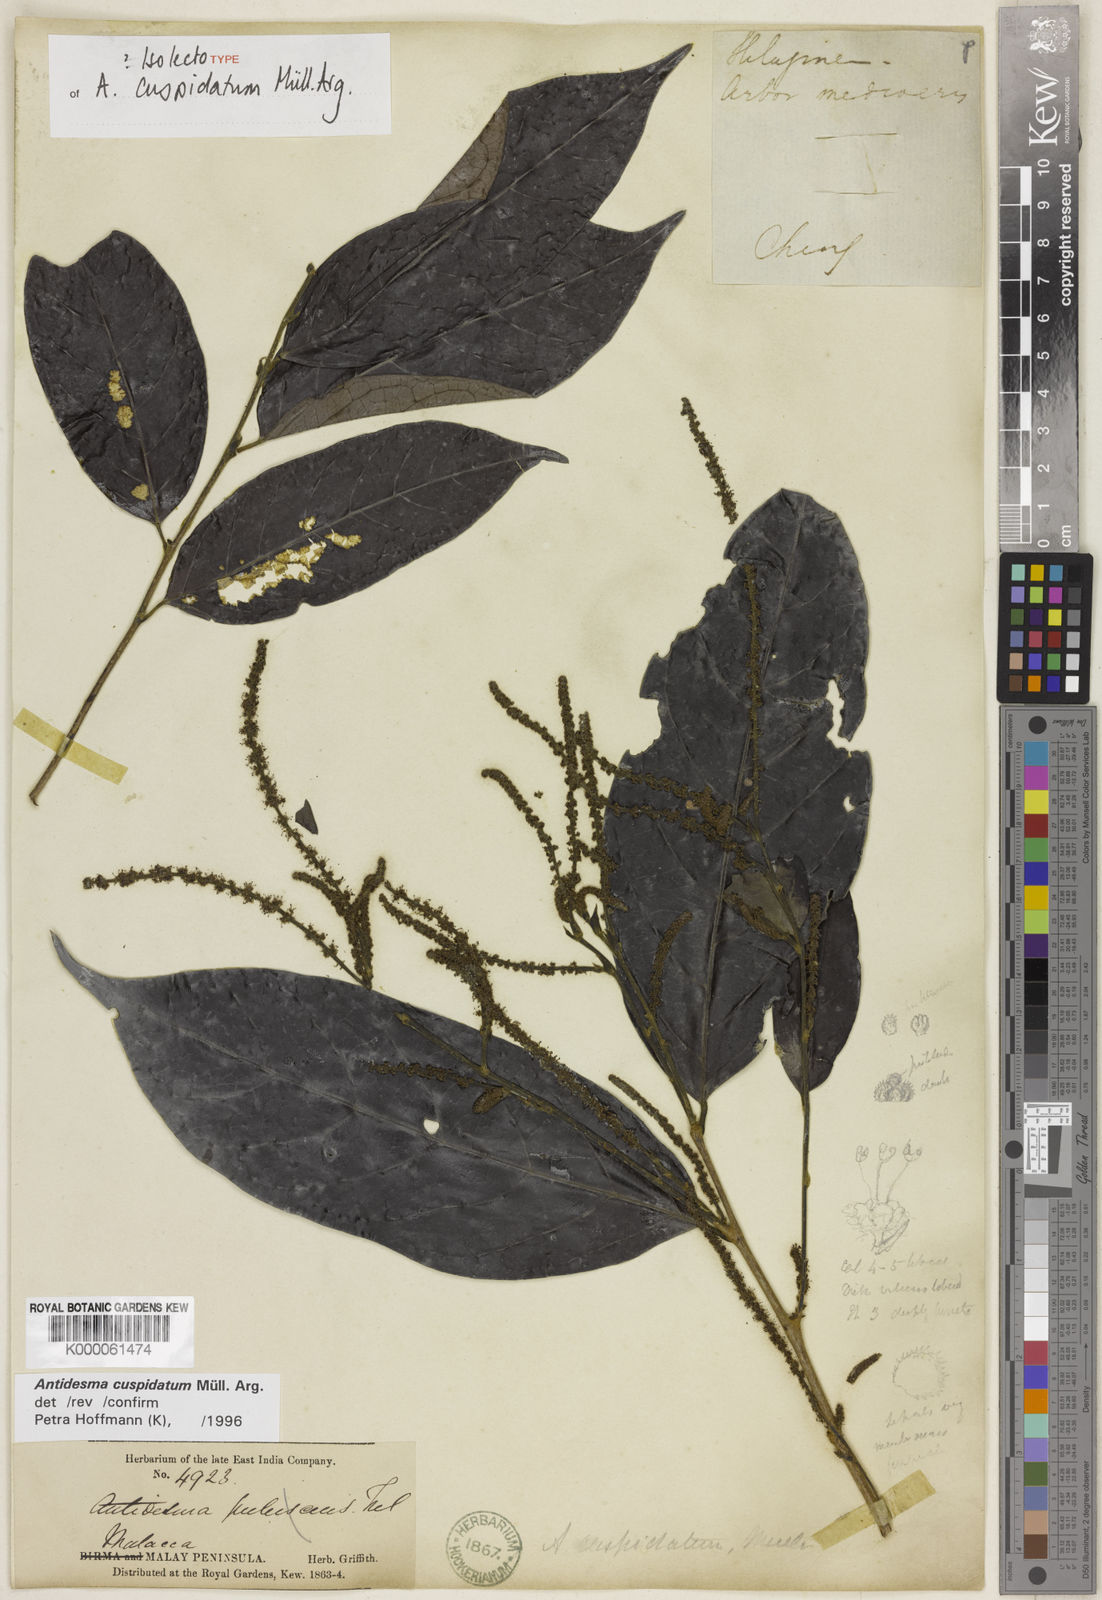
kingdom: Plantae
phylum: Tracheophyta
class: Magnoliopsida
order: Malpighiales
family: Phyllanthaceae
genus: Antidesma
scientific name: Antidesma
